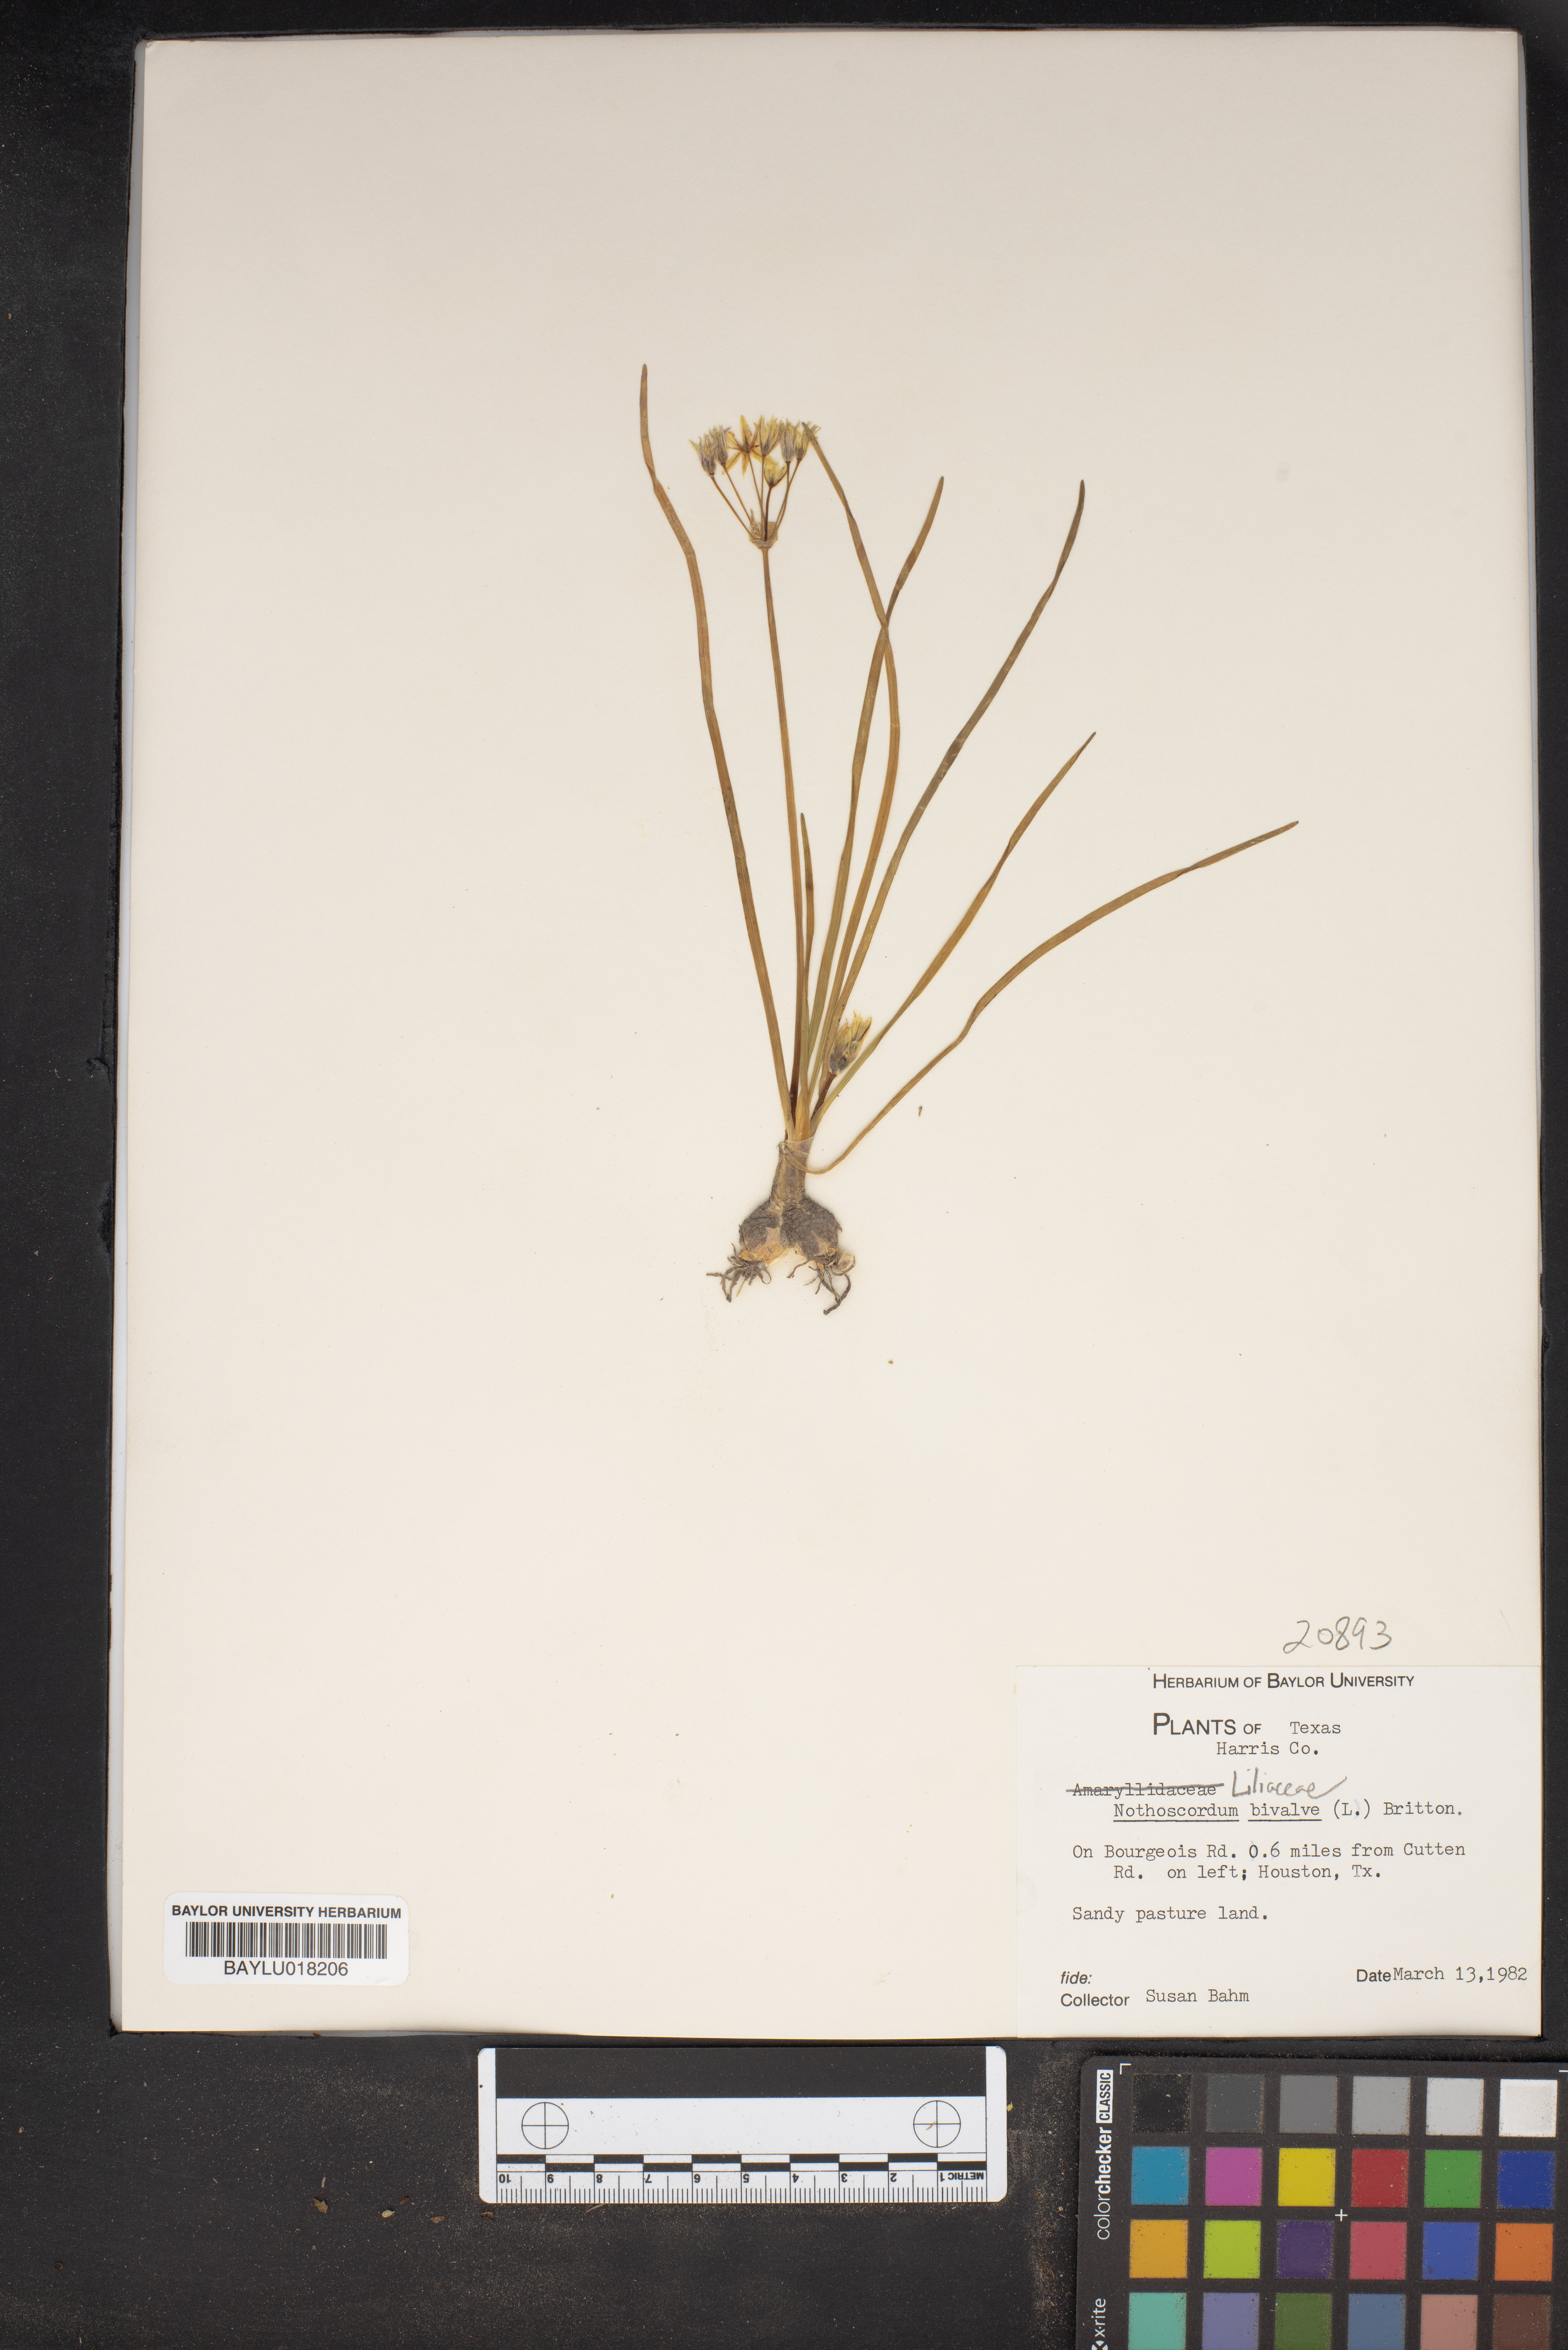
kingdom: Plantae
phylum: Tracheophyta
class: Liliopsida
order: Asparagales
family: Amaryllidaceae
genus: Nothoscordum
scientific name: Nothoscordum bivalve
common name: Crow-poison
